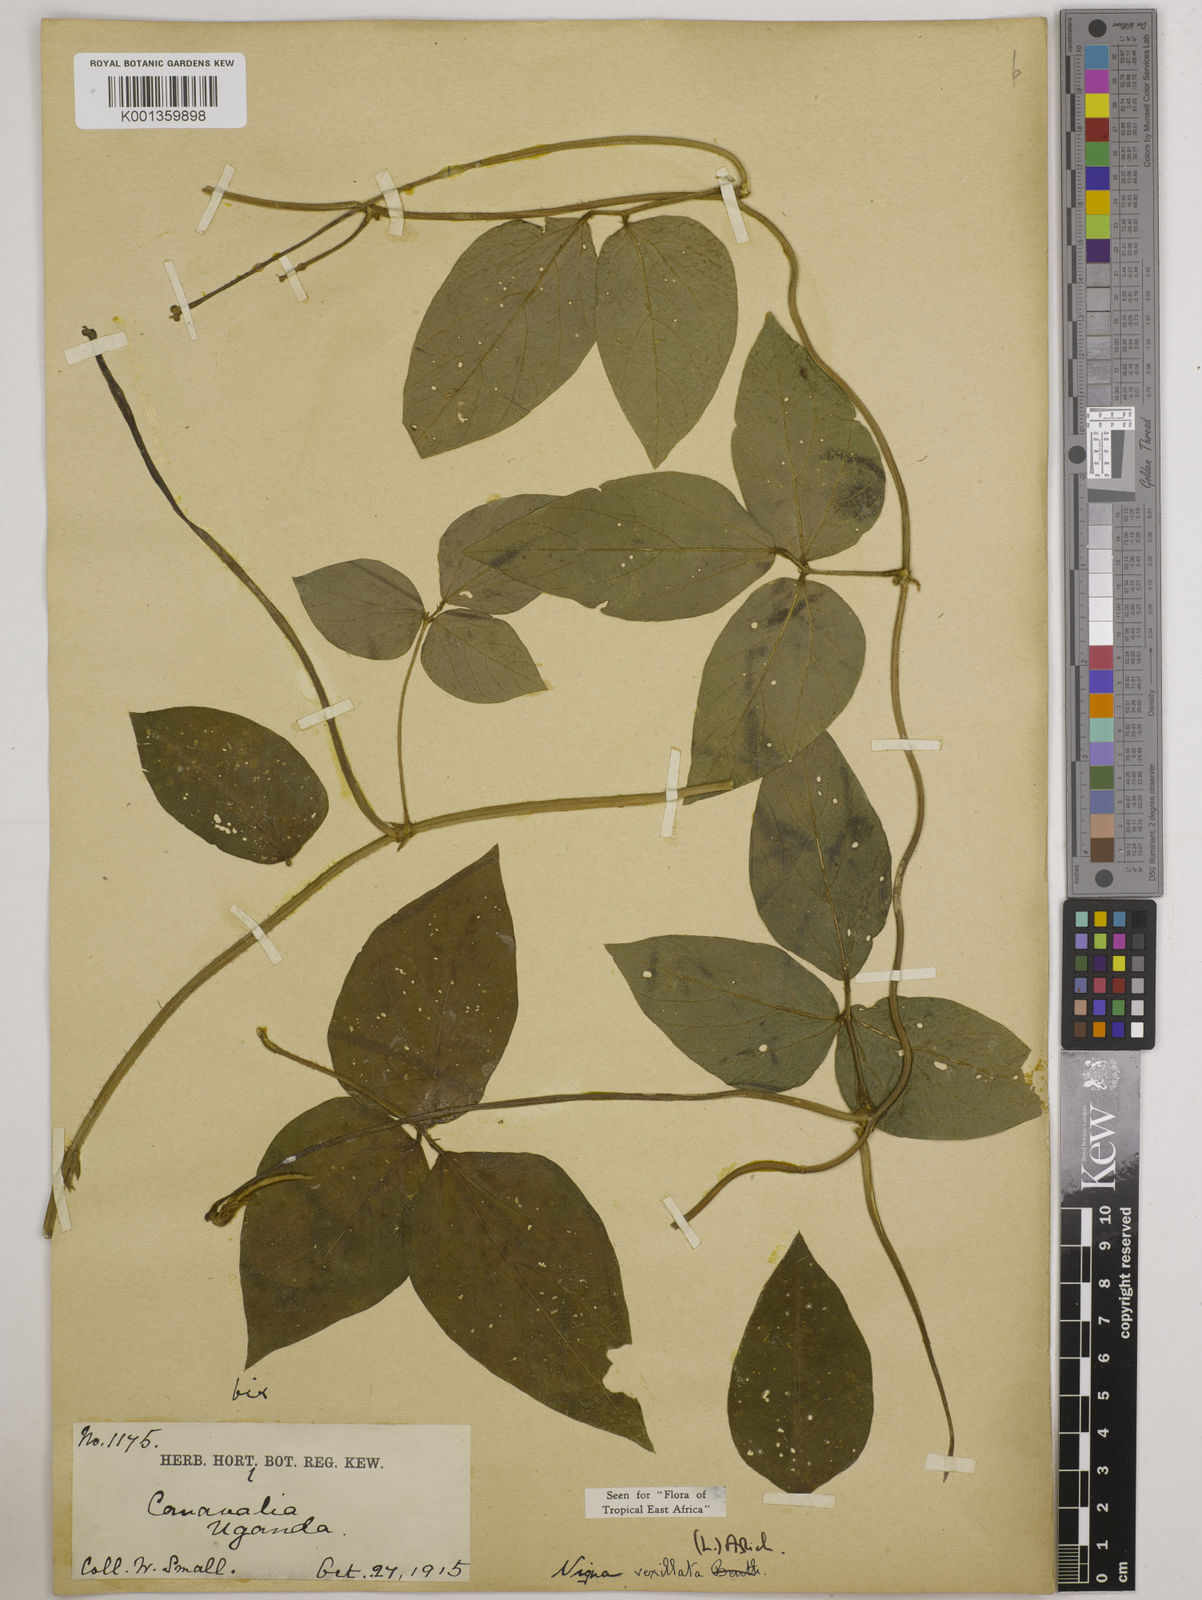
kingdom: Plantae
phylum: Tracheophyta
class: Magnoliopsida
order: Fabales
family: Fabaceae
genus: Vigna
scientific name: Vigna vexillata
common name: Zombi pea
